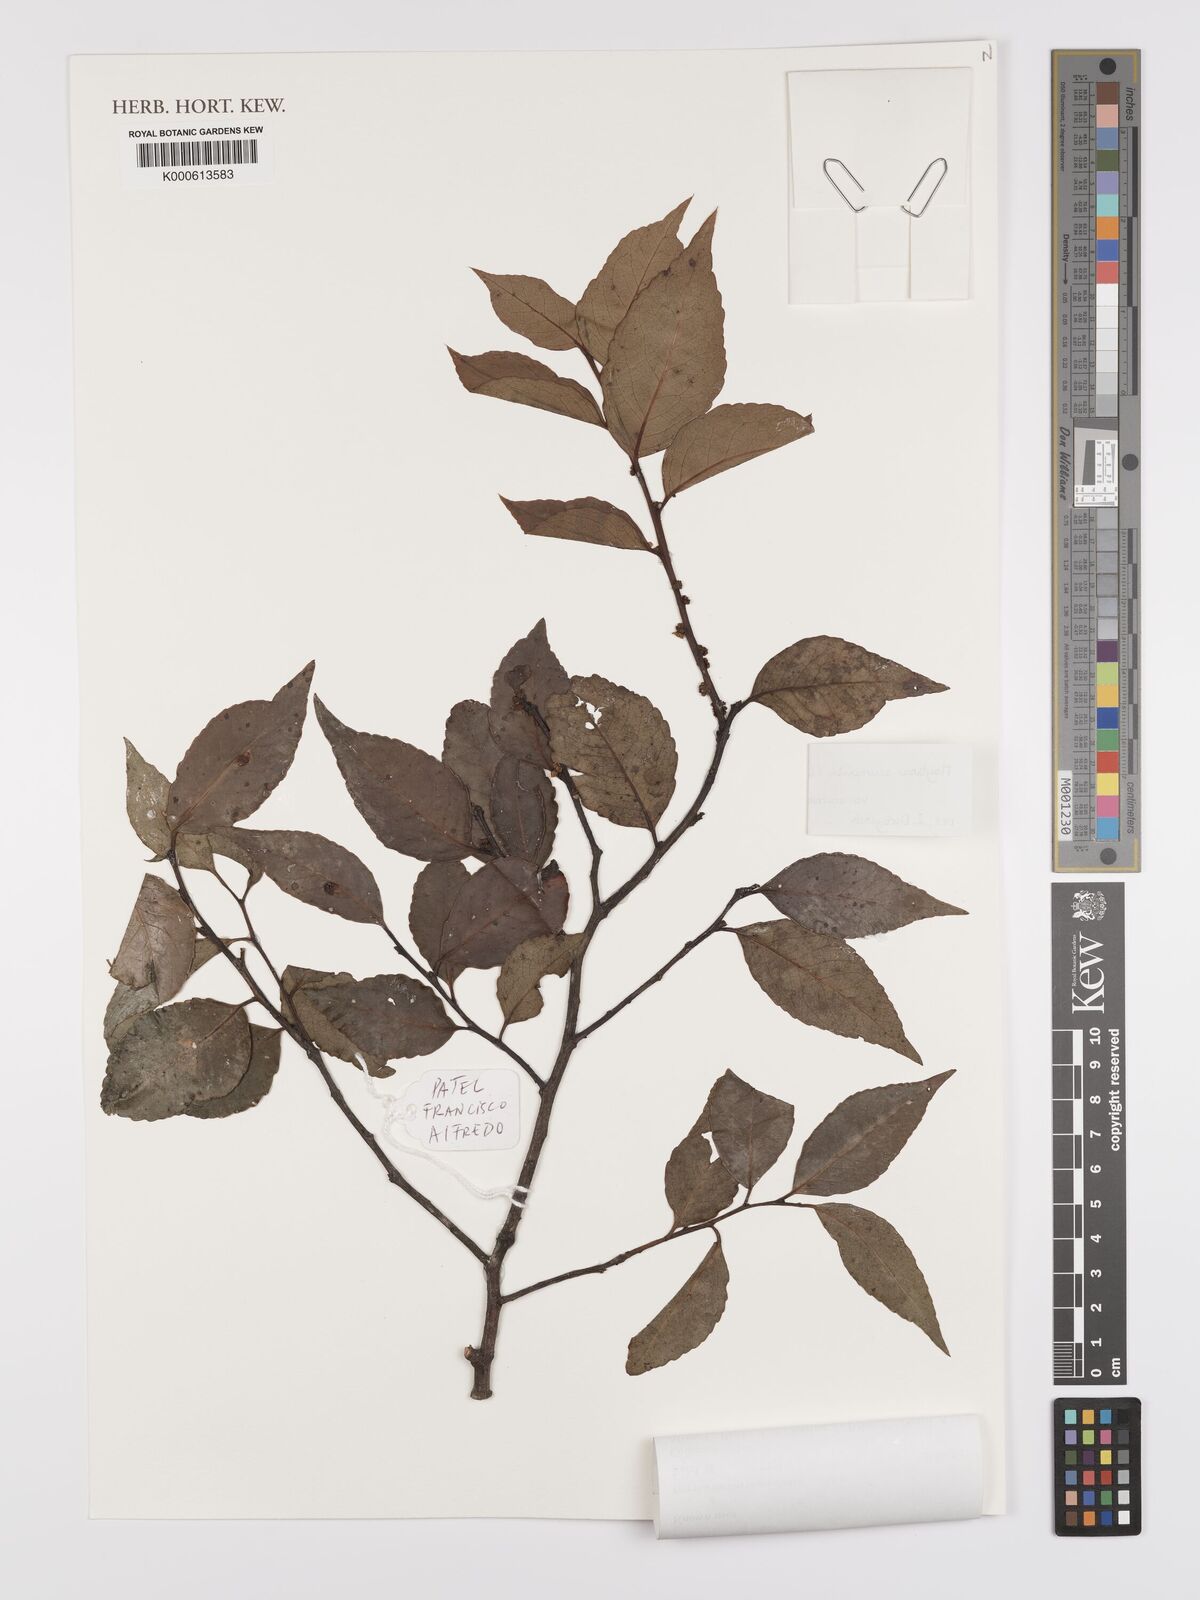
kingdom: Plantae
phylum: Tracheophyta
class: Magnoliopsida
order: Celastrales
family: Celastraceae
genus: Gymnosporia
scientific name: Gymnosporia acuminata
